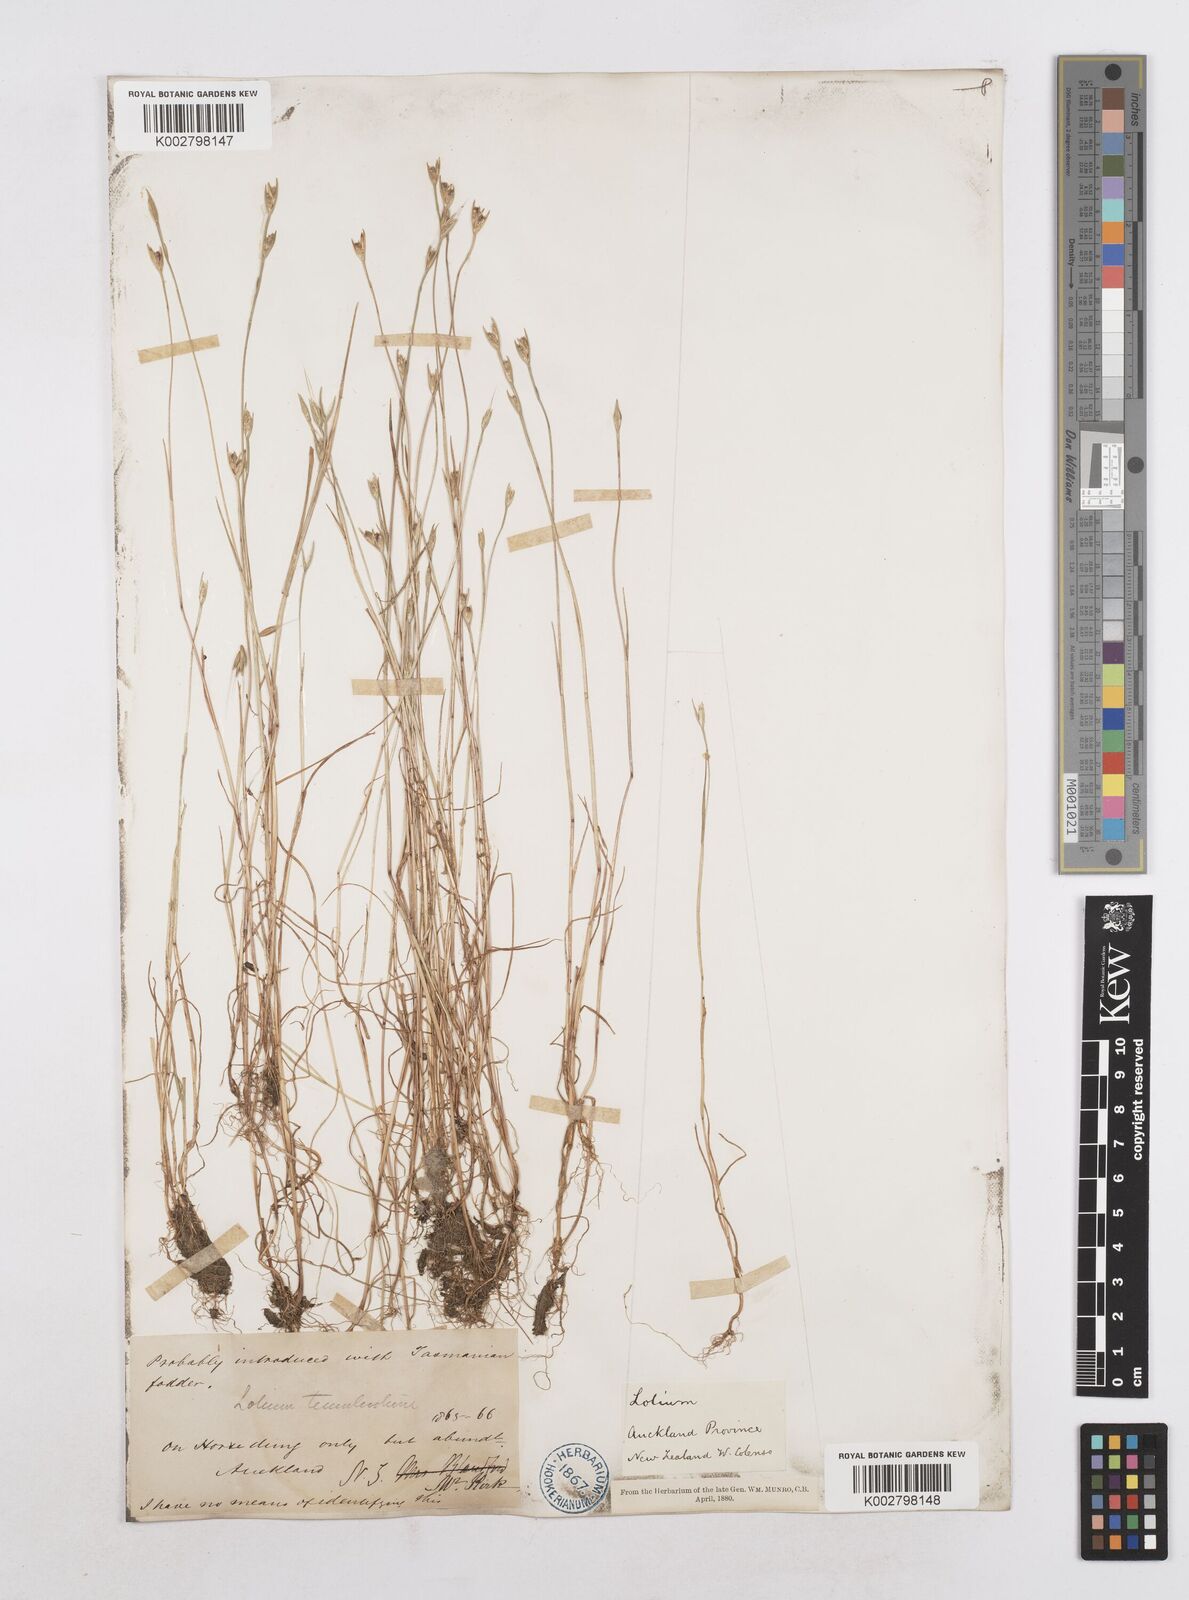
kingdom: Plantae
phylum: Tracheophyta
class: Liliopsida
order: Poales
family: Poaceae
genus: Lolium
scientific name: Lolium
